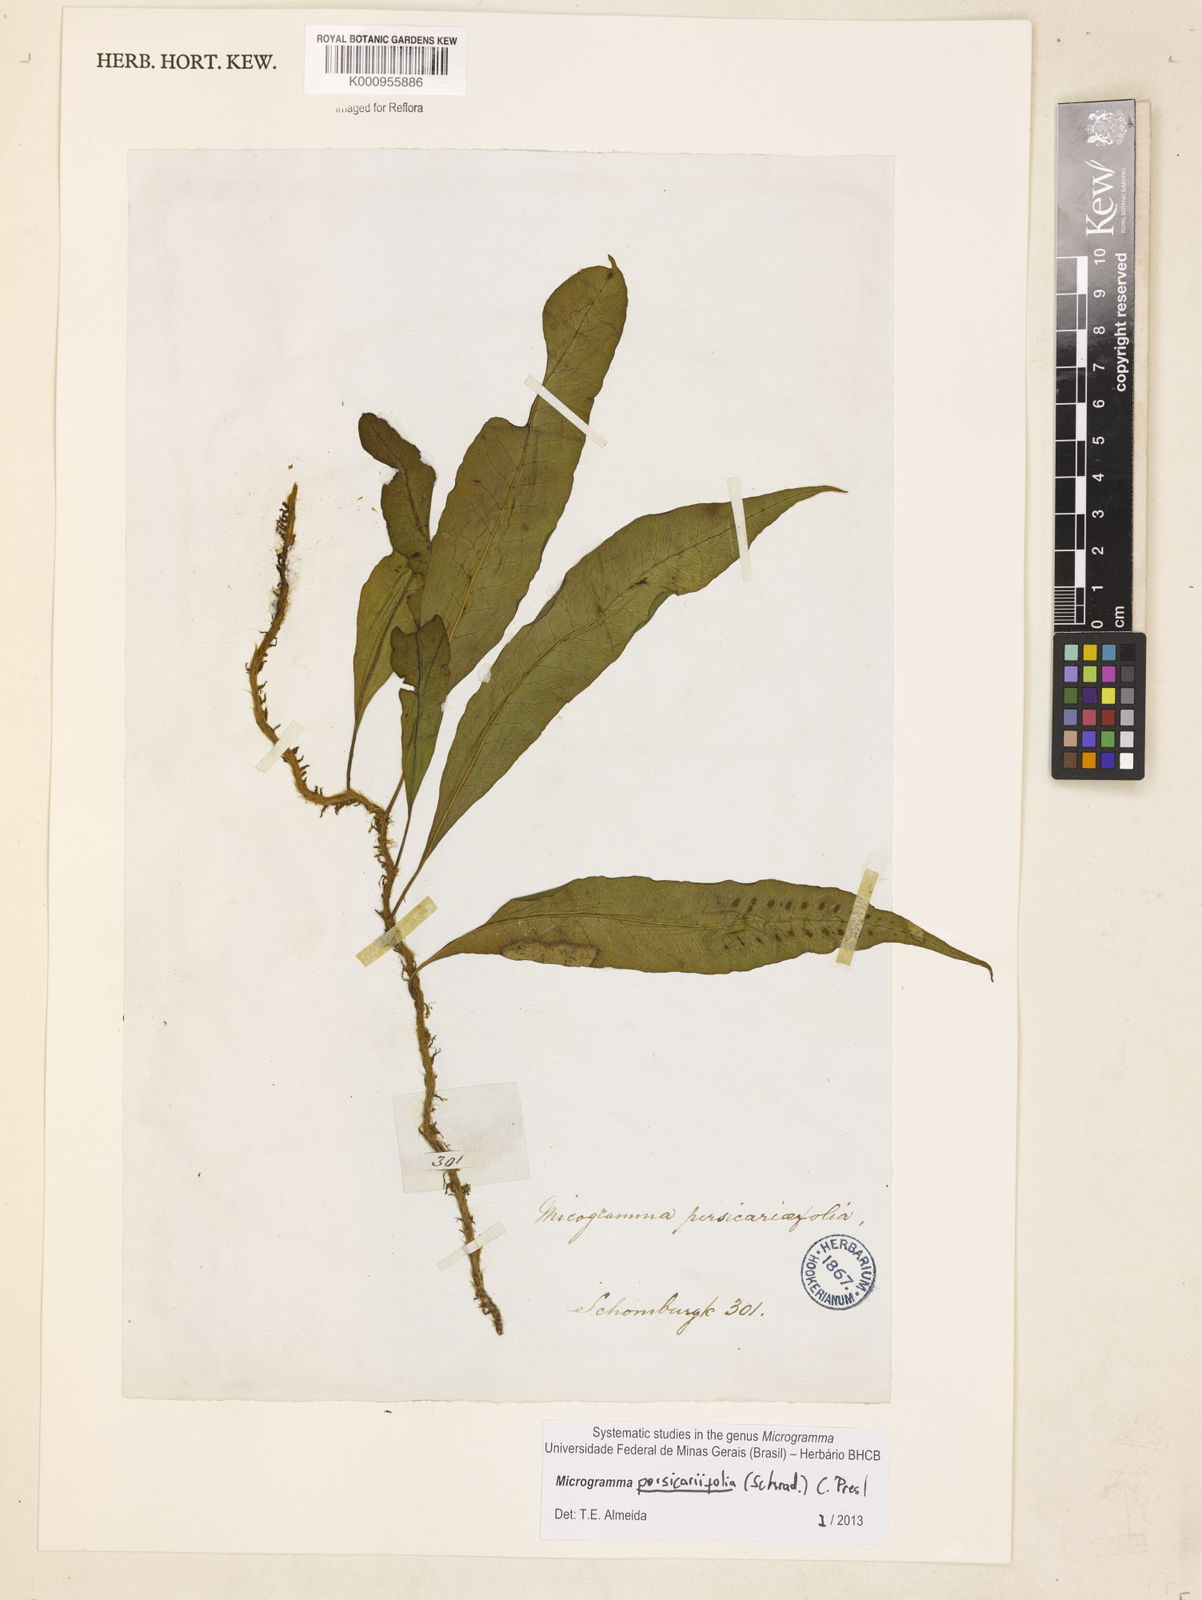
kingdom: Plantae
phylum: Tracheophyta
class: Polypodiopsida
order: Polypodiales
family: Polypodiaceae
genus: Microgramma
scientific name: Microgramma persicariifolia
